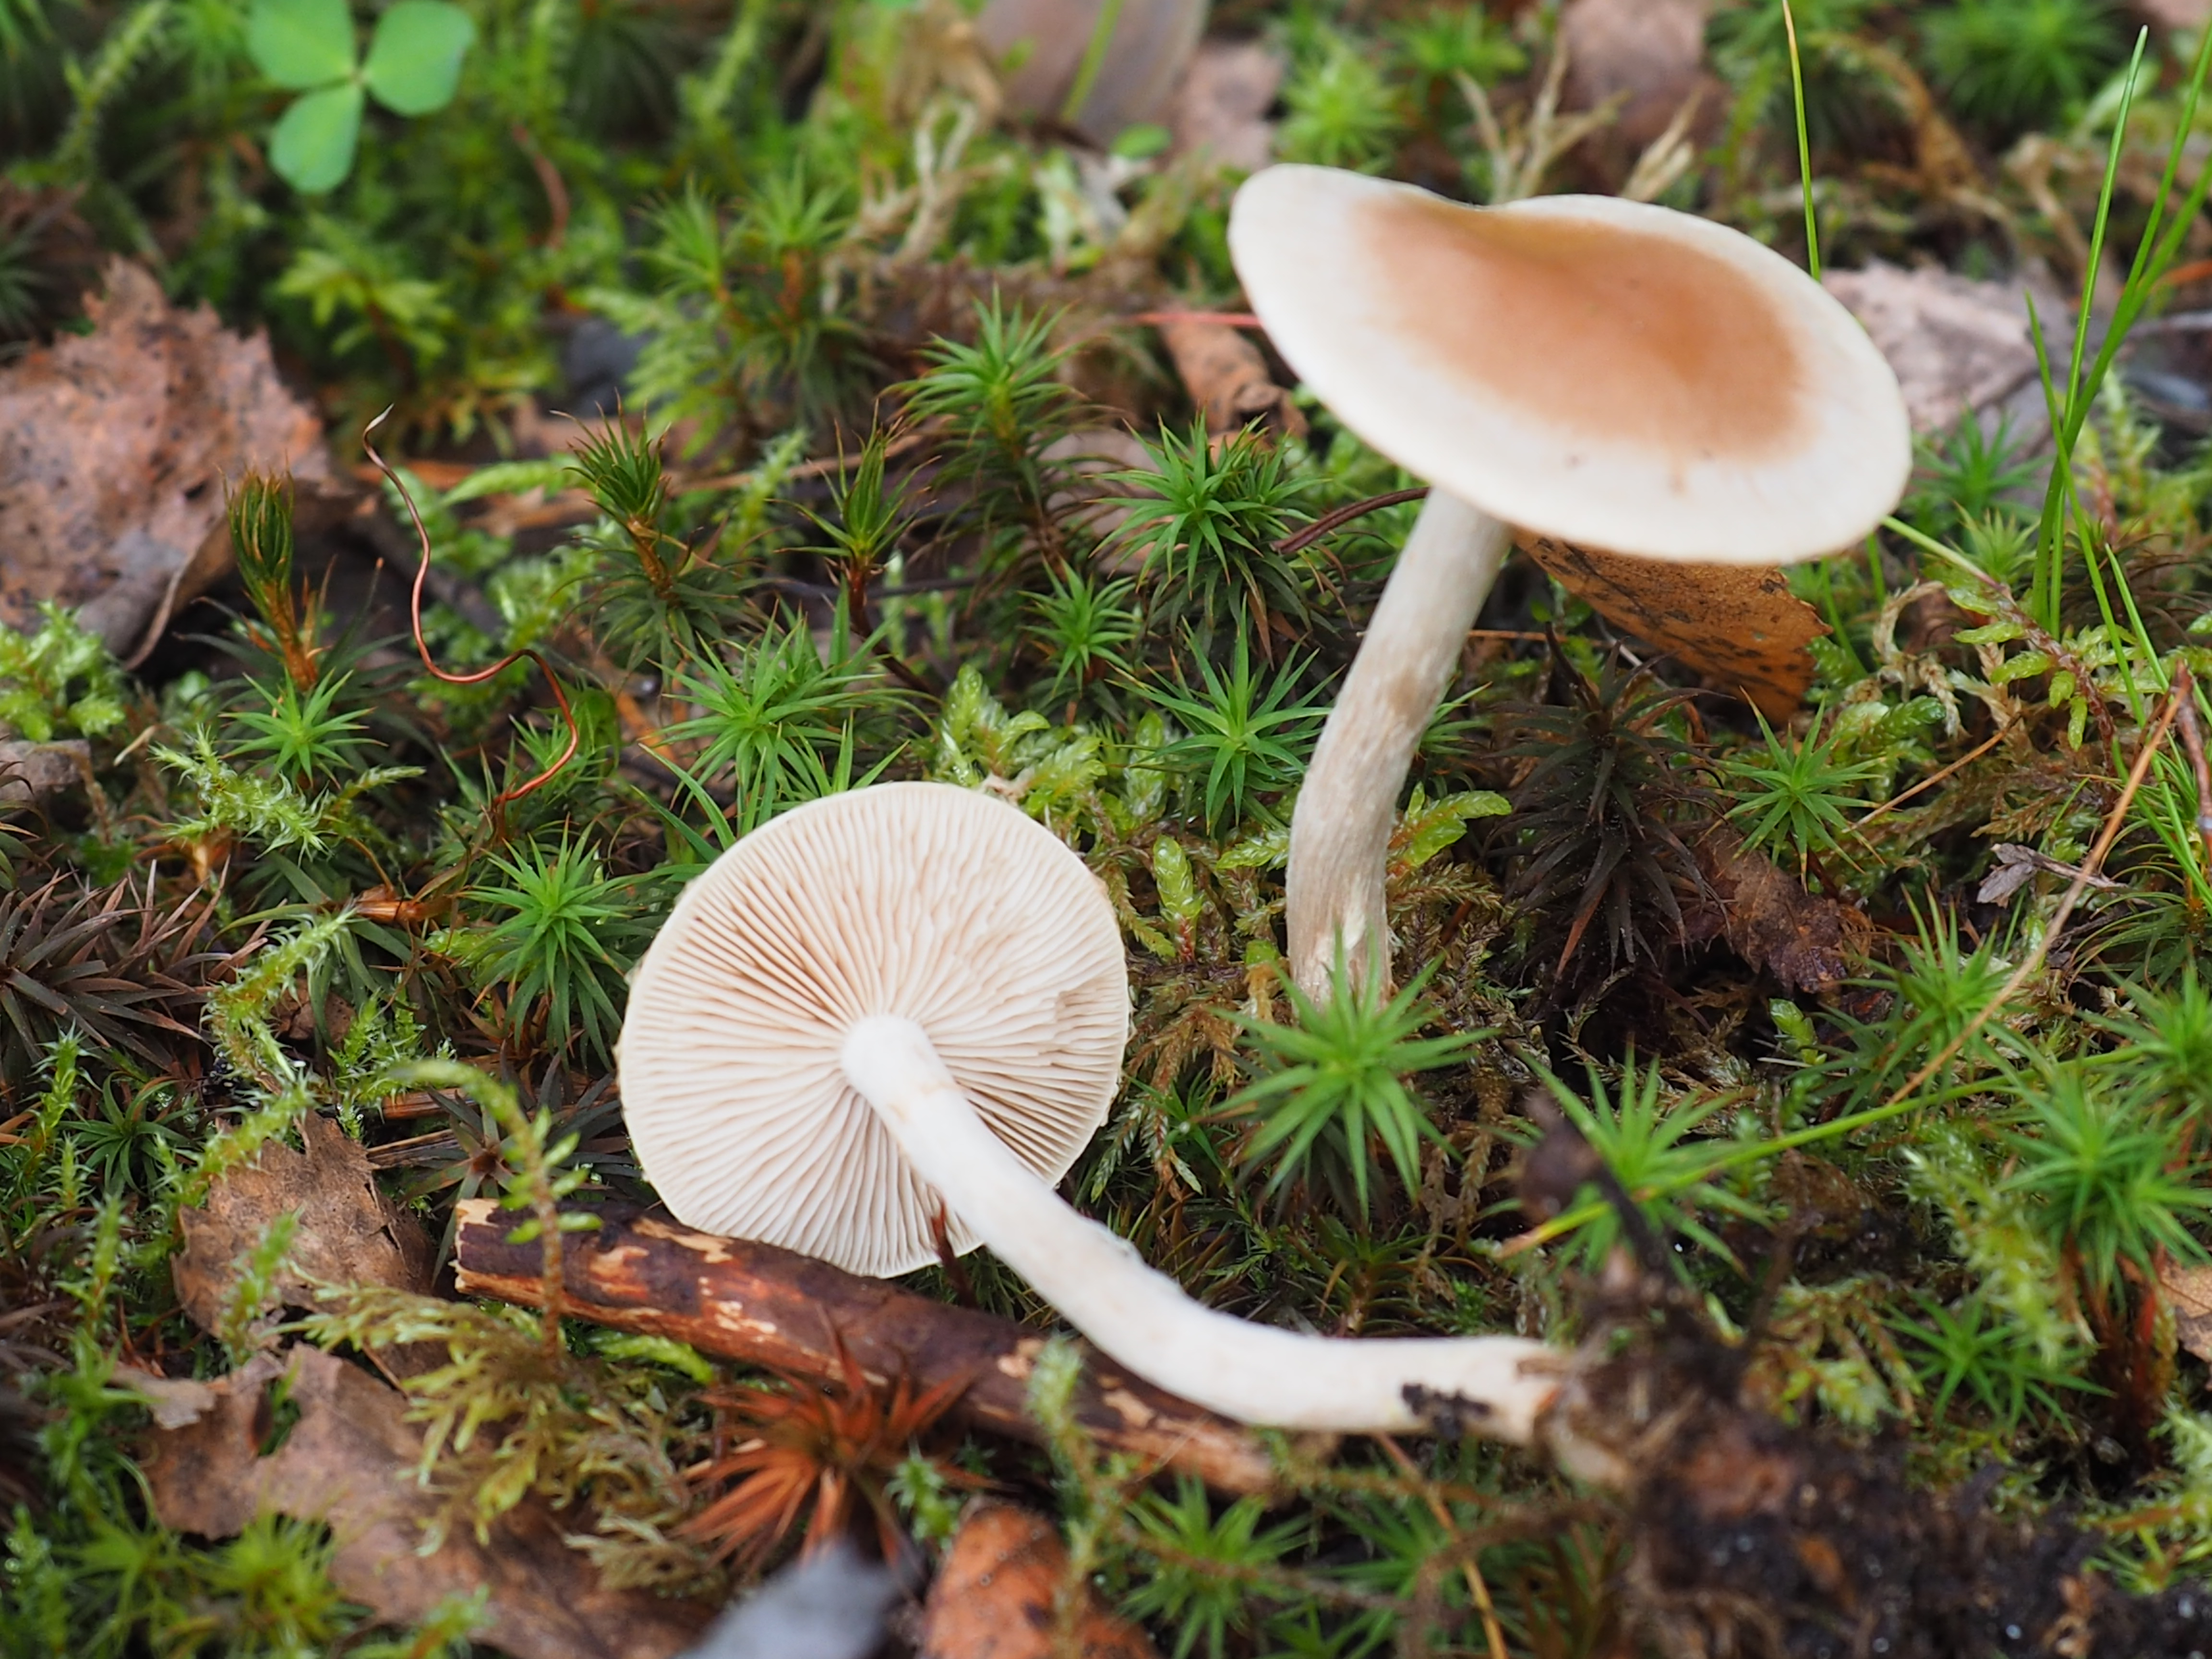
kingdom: Fungi
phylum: Basidiomycota
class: Agaricomycetes
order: Agaricales
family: Hymenogastraceae
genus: Hebeloma
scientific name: Hebeloma hygrophilum
